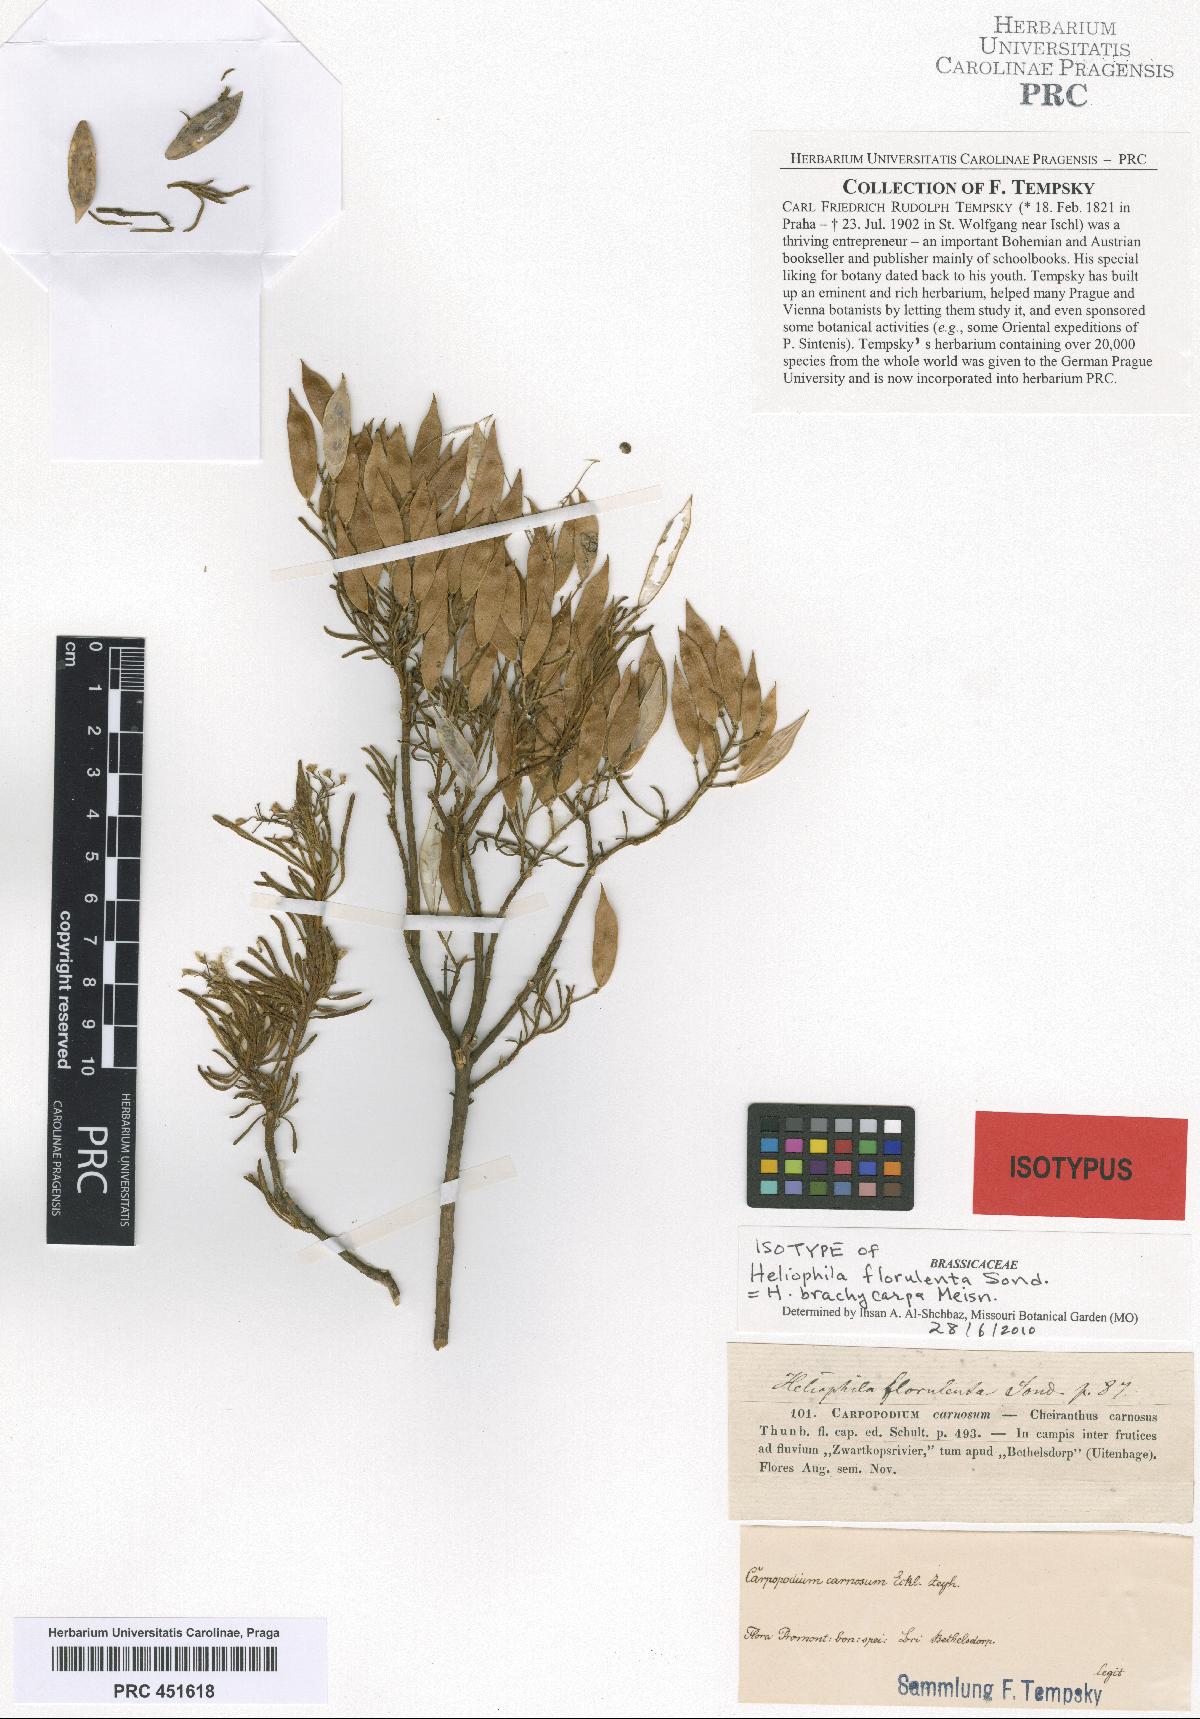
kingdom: Plantae
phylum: Tracheophyta
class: Magnoliopsida
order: Brassicales
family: Brassicaceae
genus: Heliophila
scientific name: Heliophila brachycarpa
